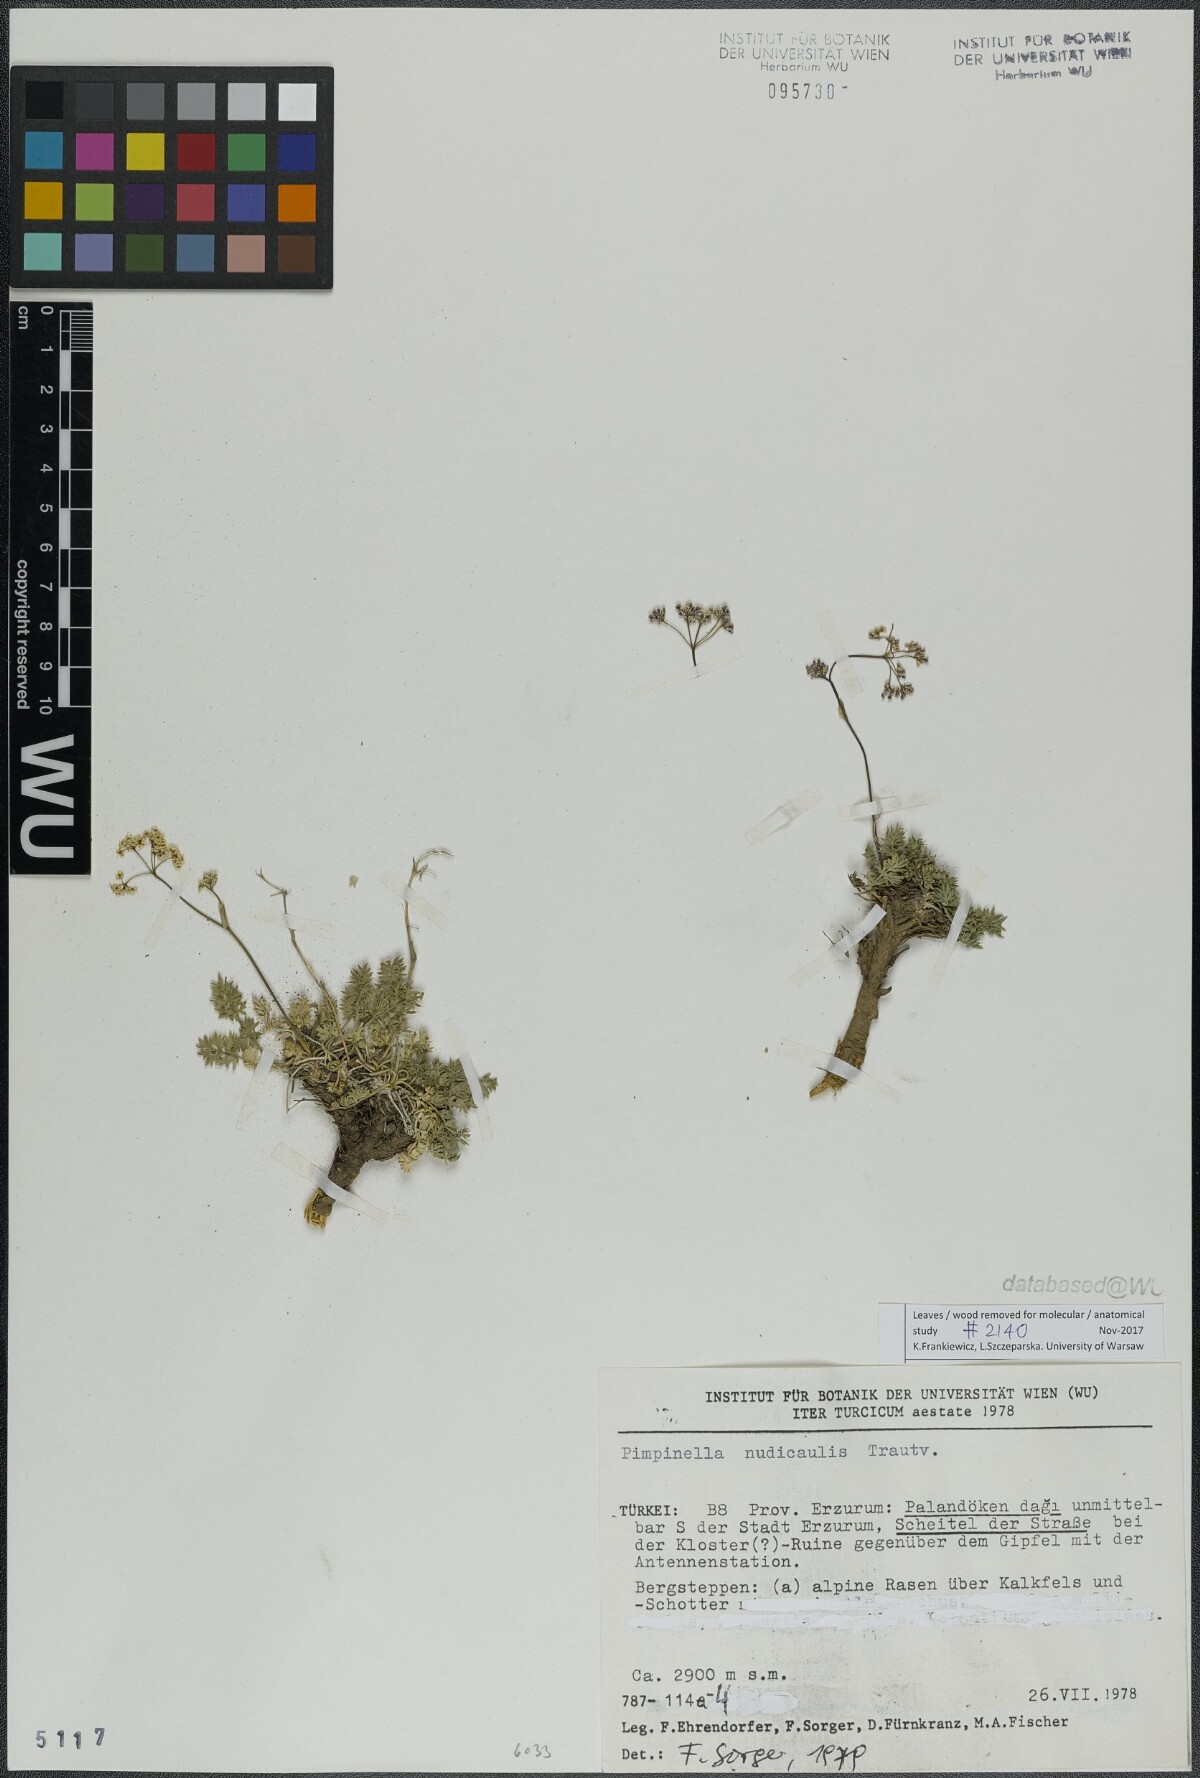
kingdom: Plantae
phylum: Tracheophyta
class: Magnoliopsida
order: Apiales
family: Apiaceae
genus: Pimpinella
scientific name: Pimpinella nudicaulis
